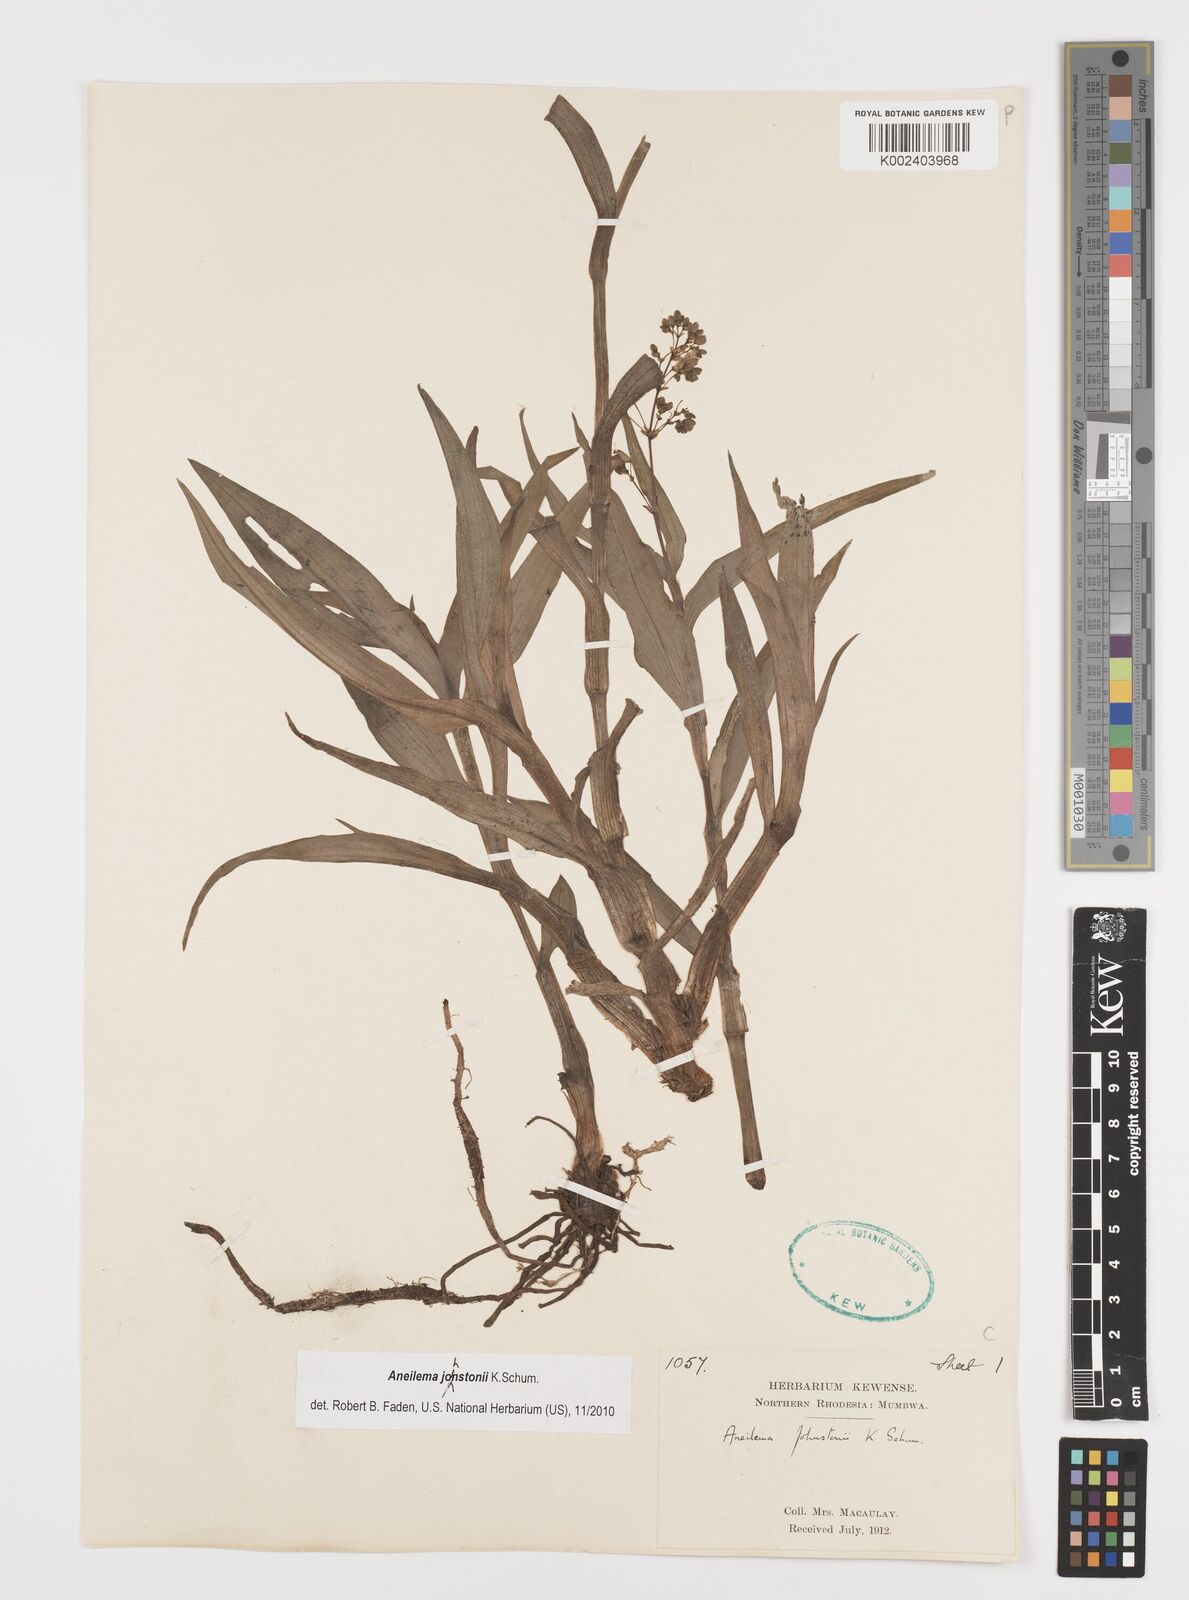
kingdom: Plantae
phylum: Tracheophyta
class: Liliopsida
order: Commelinales
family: Commelinaceae
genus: Aneilema
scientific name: Aneilema johnstonii
